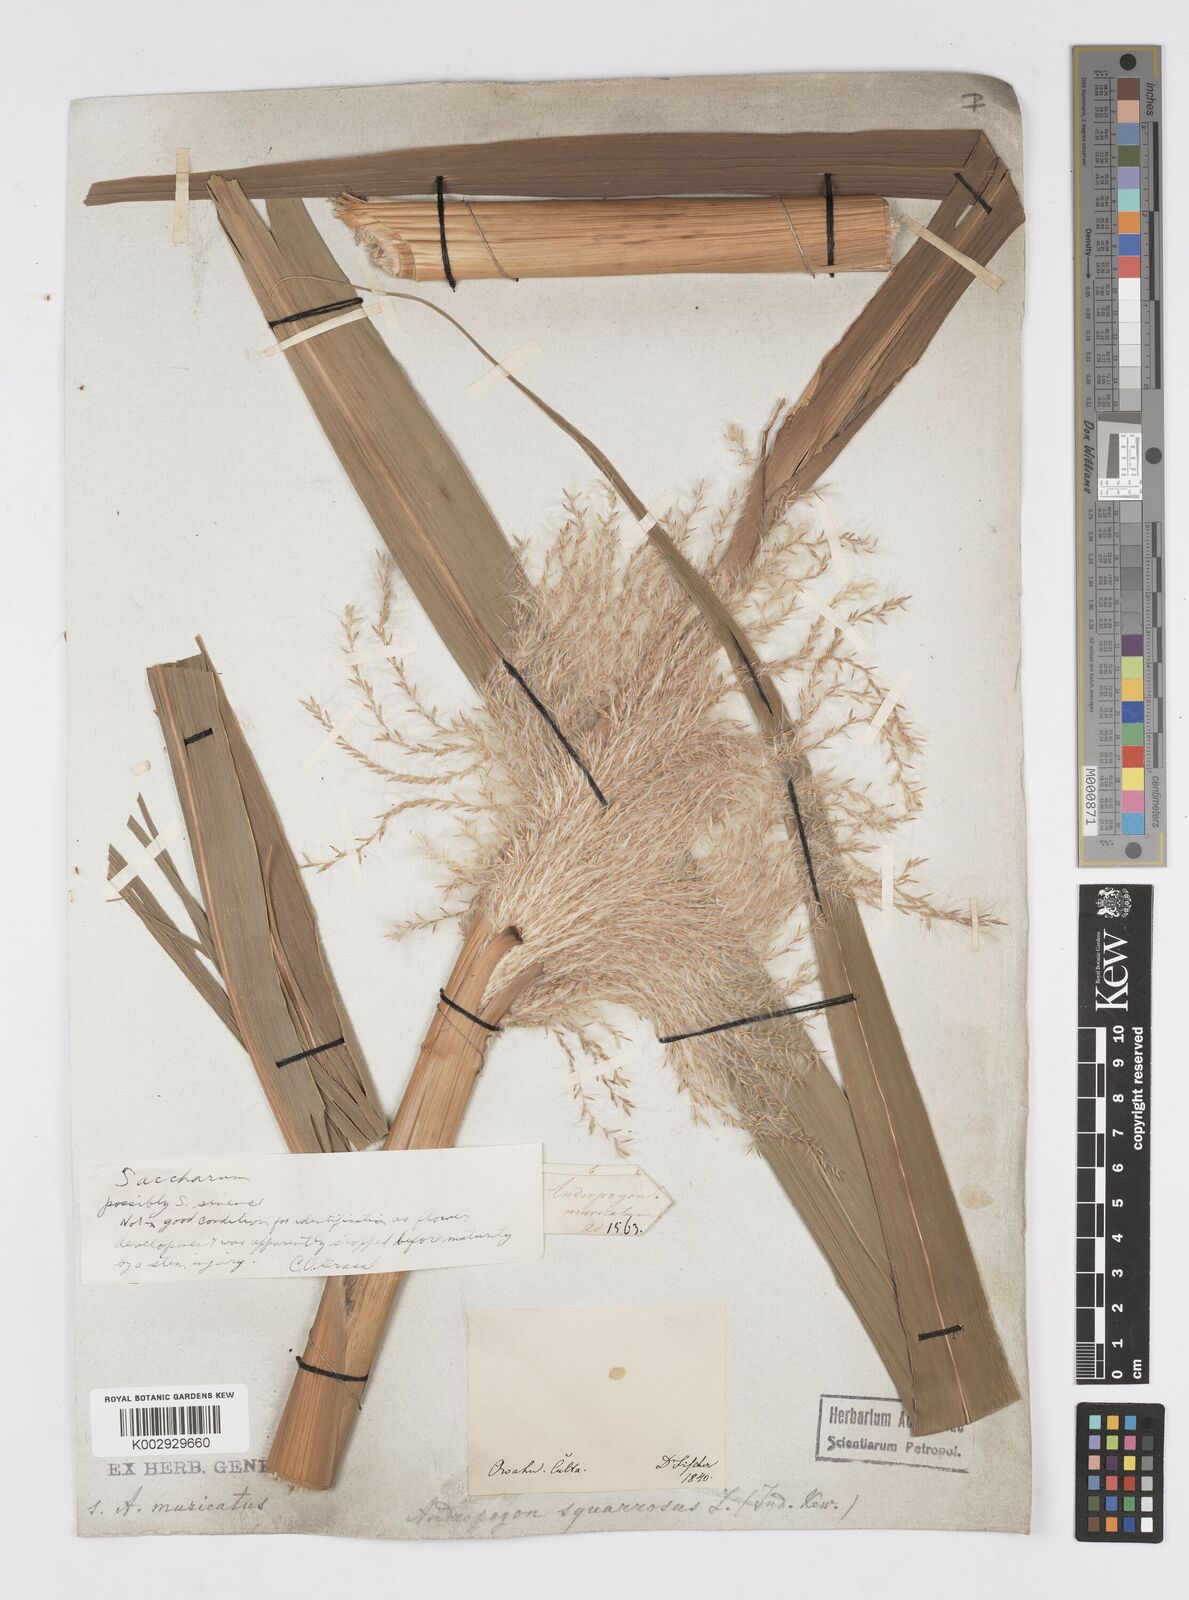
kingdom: Plantae
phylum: Tracheophyta
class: Liliopsida
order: Poales
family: Poaceae
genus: Saccharum
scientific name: Saccharum officinarum
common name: Sugarcane
